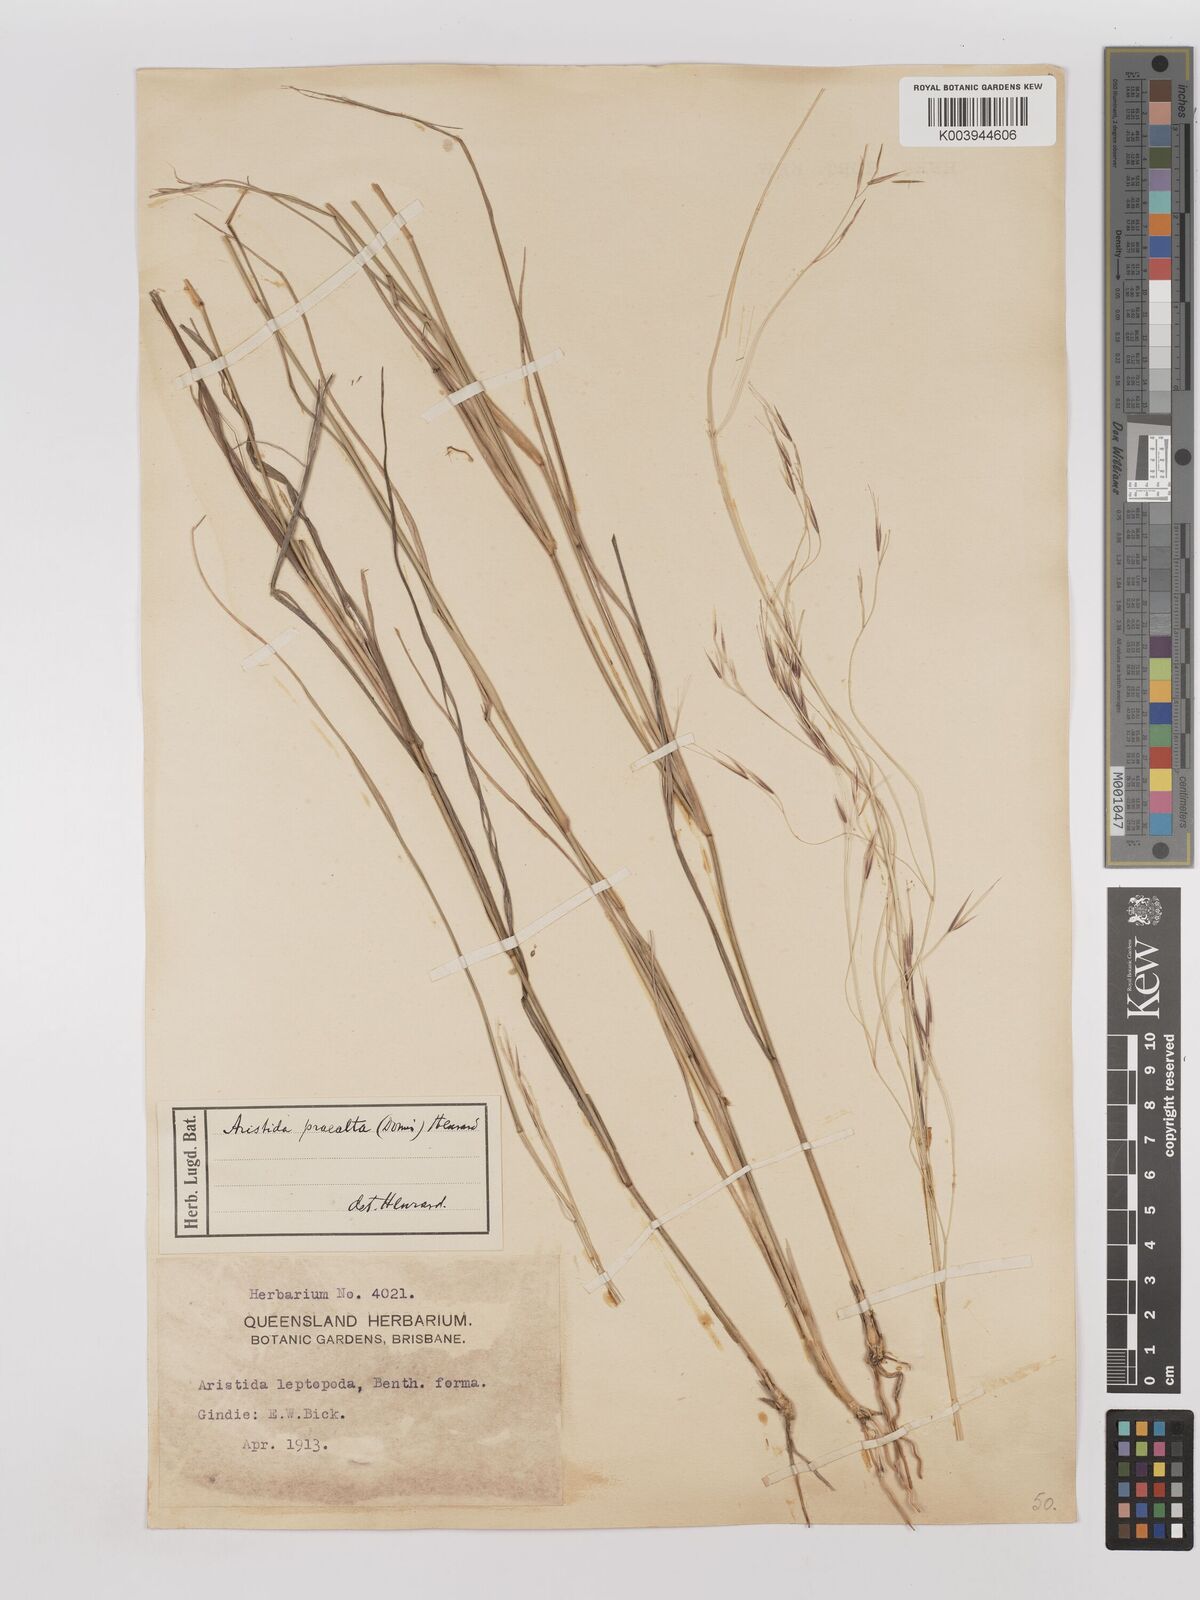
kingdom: Plantae
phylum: Tracheophyta
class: Liliopsida
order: Poales
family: Poaceae
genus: Aristida
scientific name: Aristida calycina
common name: Dark wire grass
